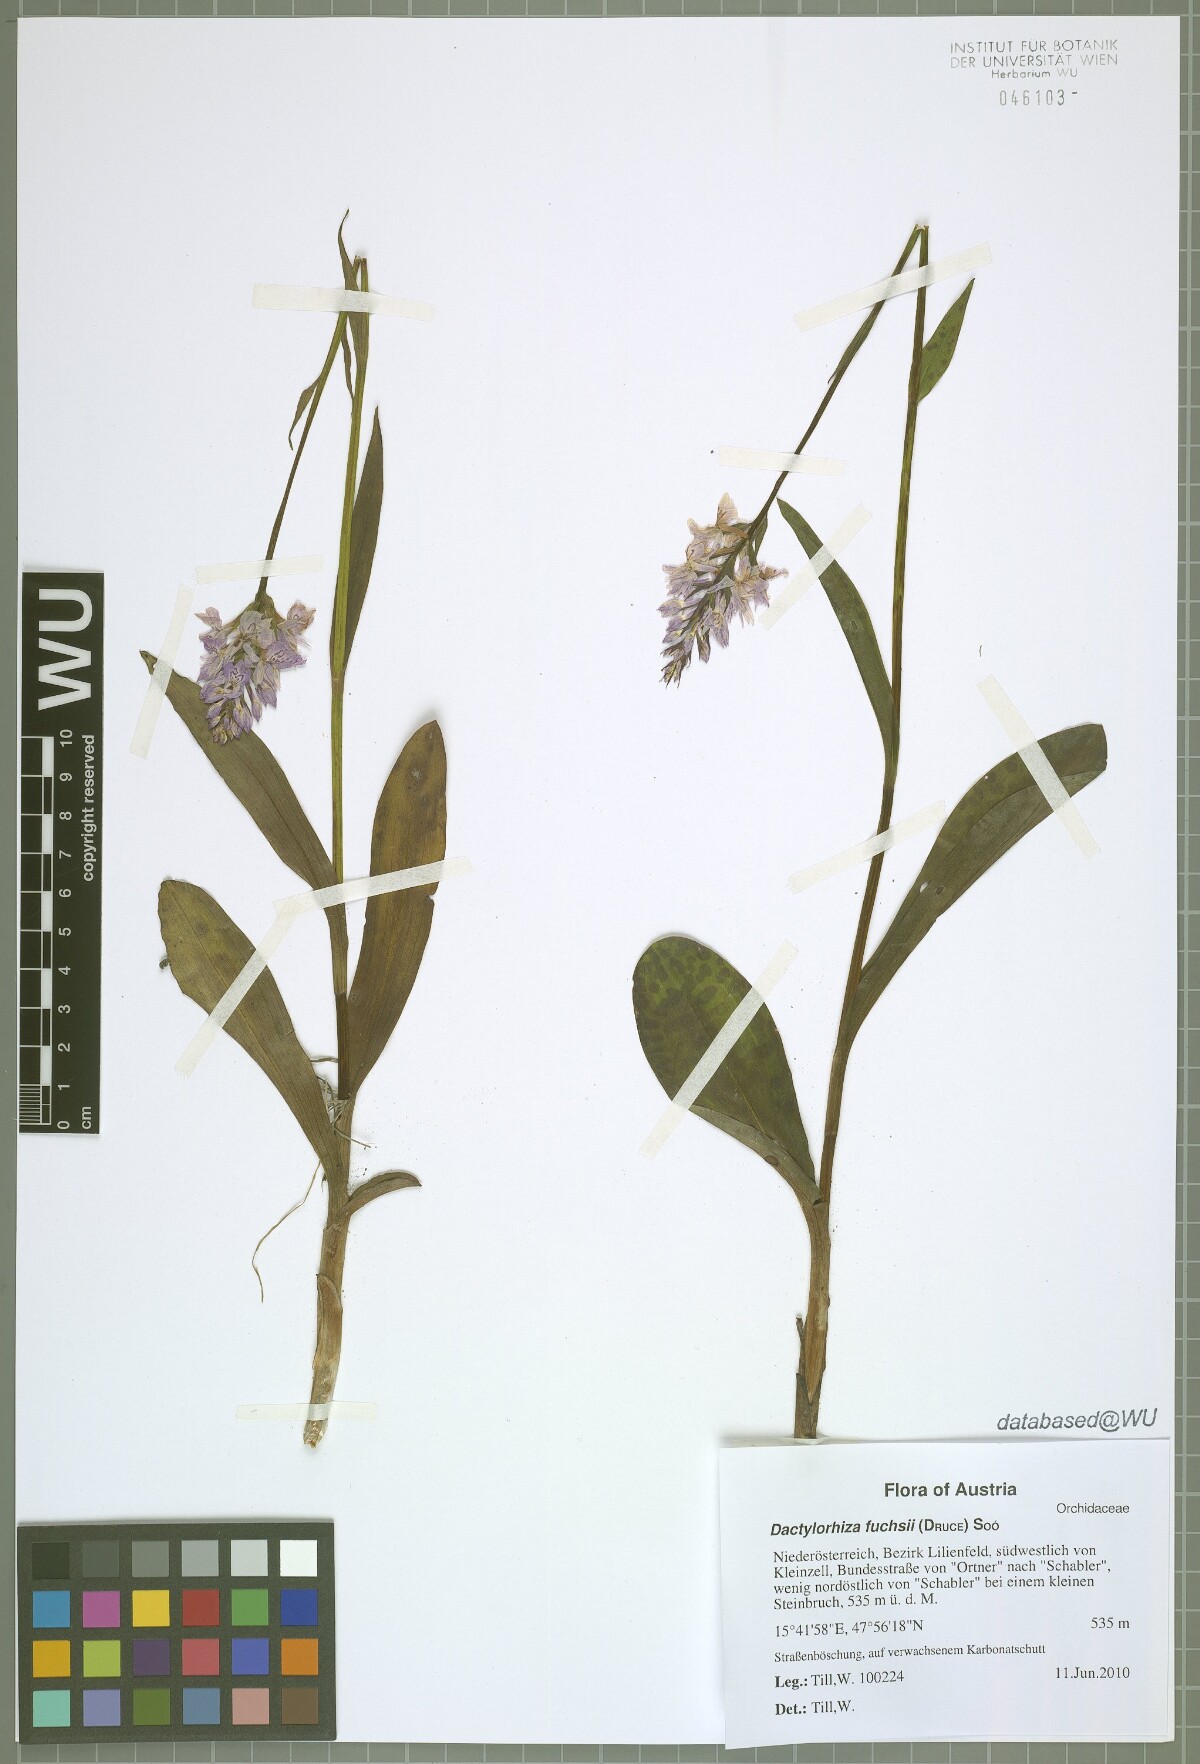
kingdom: Plantae
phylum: Tracheophyta
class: Liliopsida
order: Asparagales
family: Orchidaceae
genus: Dactylorhiza
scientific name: Dactylorhiza maculata
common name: Heath spotted-orchid
